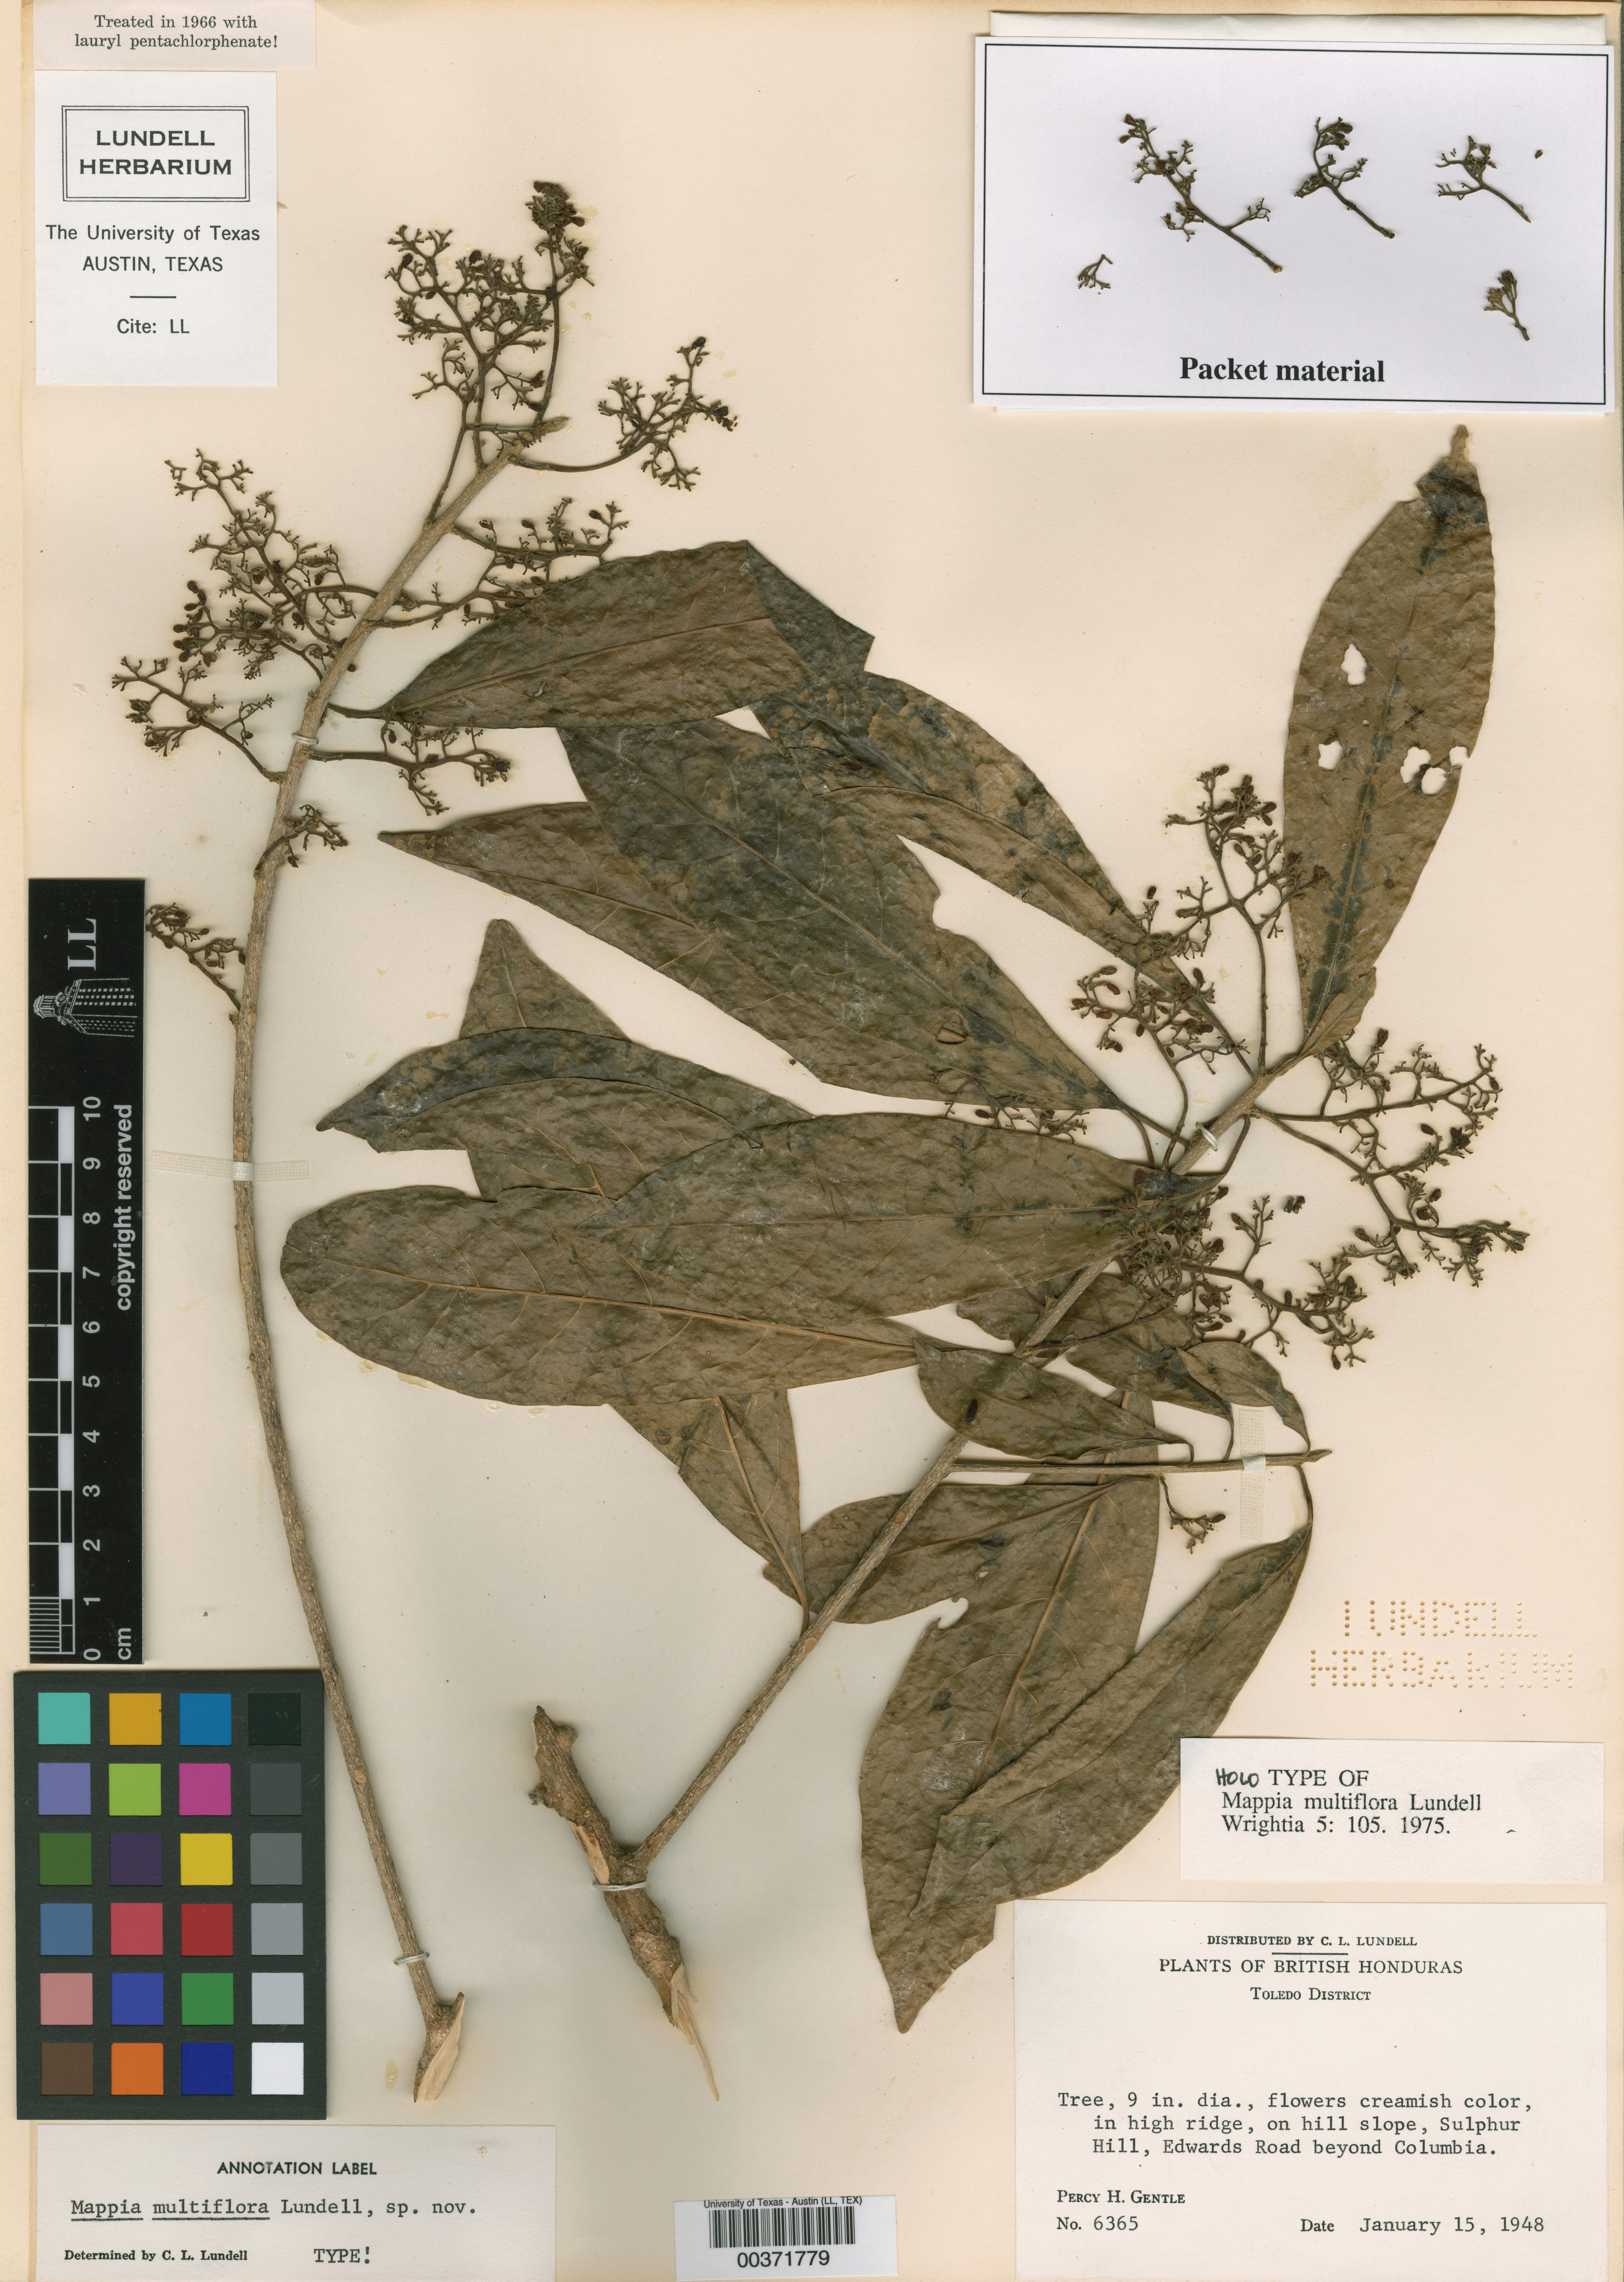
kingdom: Plantae
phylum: Tracheophyta
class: Magnoliopsida
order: Icacinales
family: Icacinaceae
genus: Mappia
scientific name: Mappia multiflora
